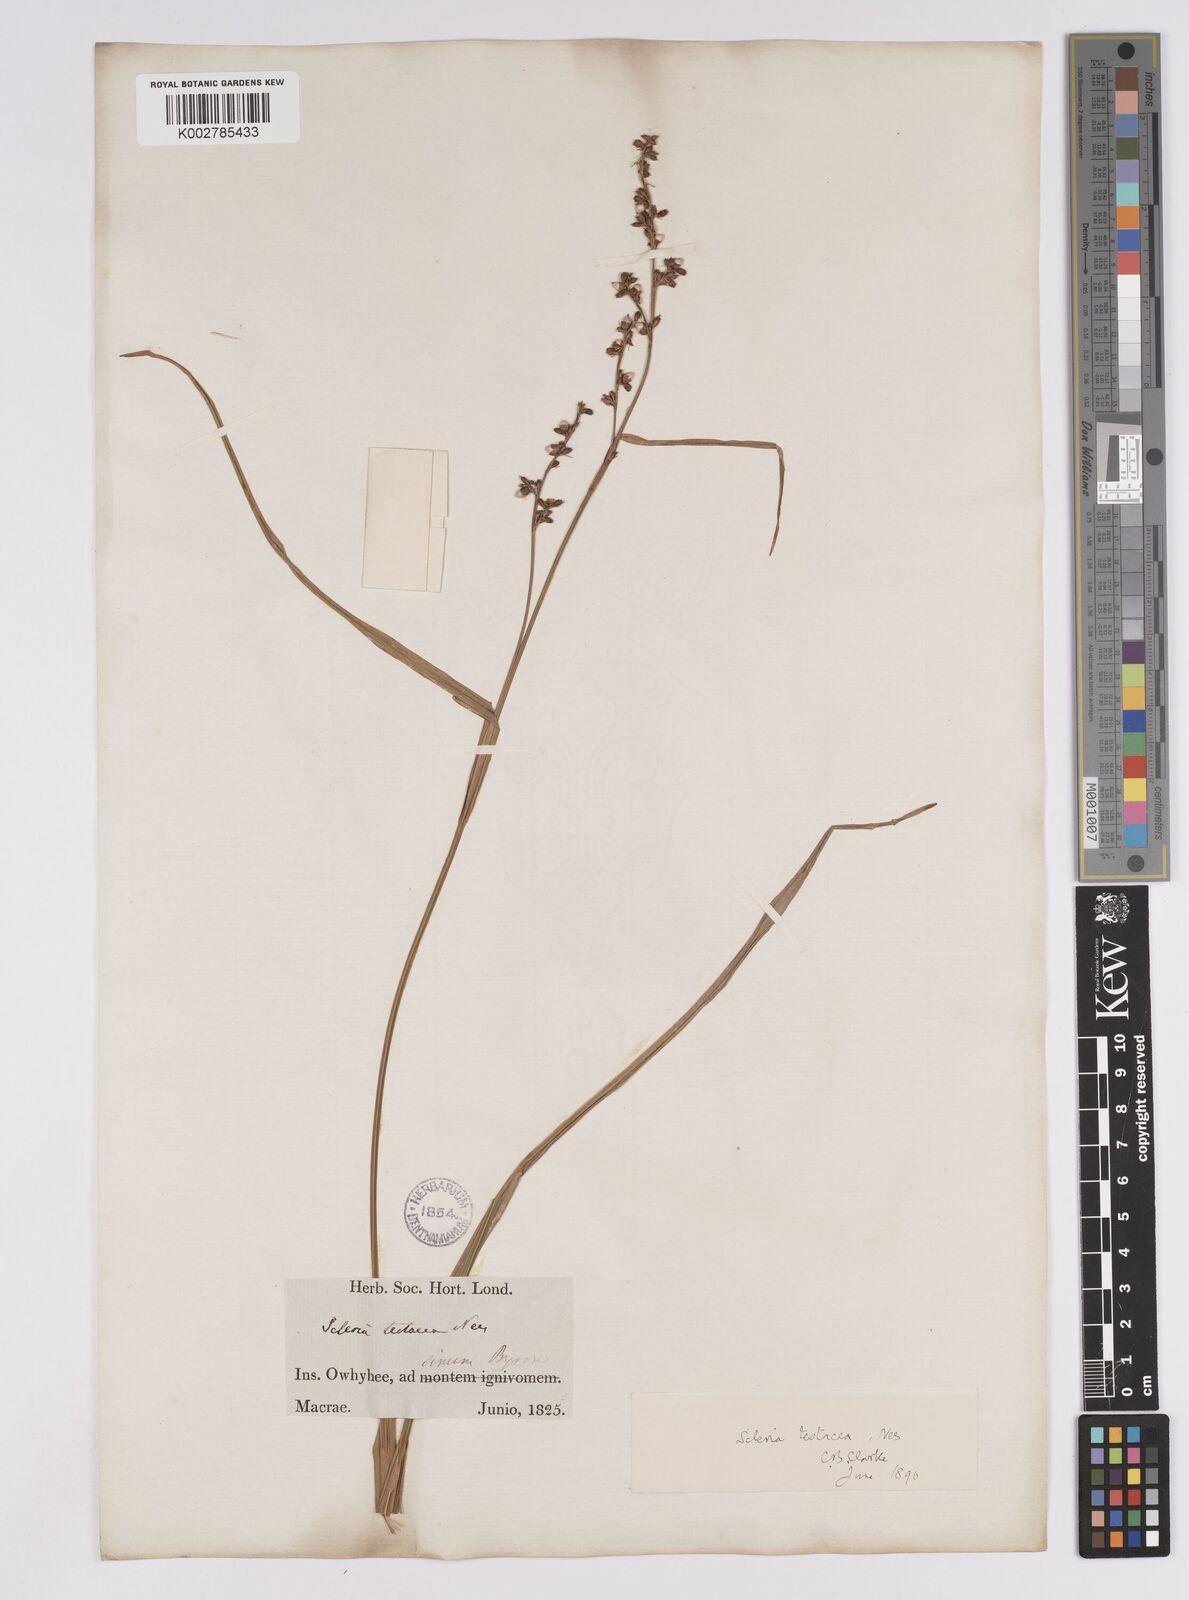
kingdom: Plantae
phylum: Tracheophyta
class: Liliopsida
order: Poales
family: Cyperaceae
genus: Scleria
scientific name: Scleria testacea
